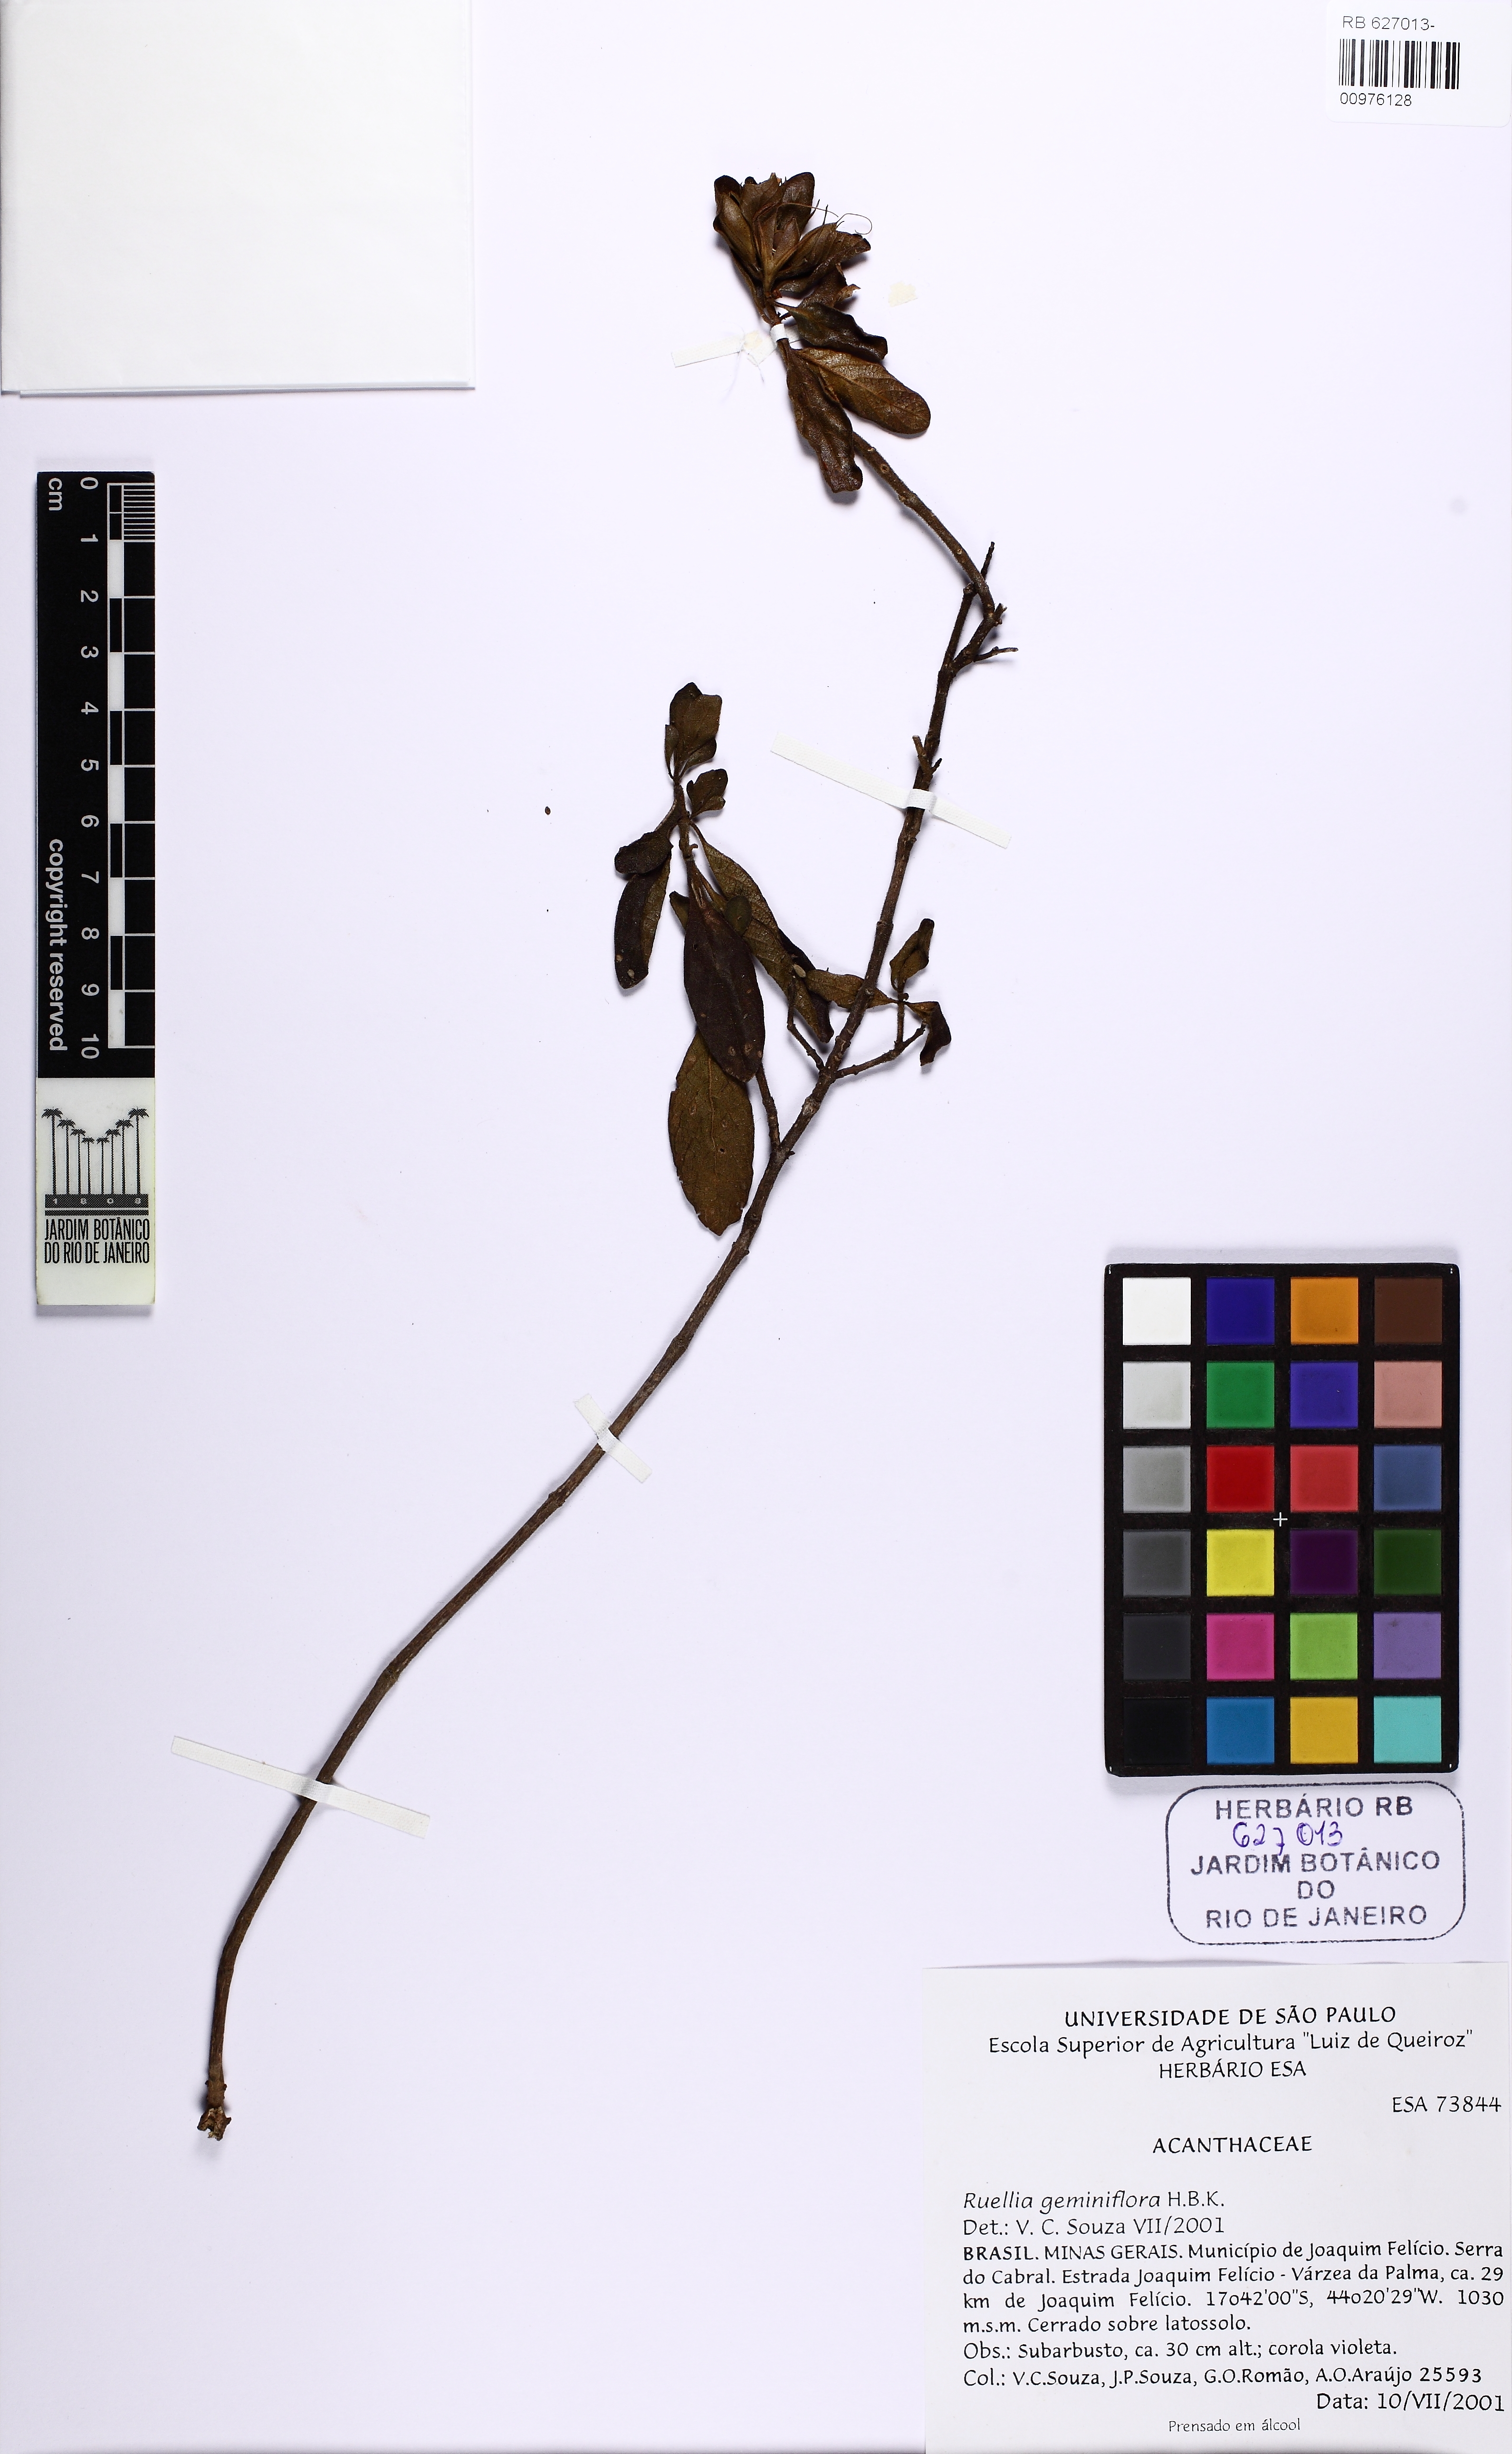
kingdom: Plantae
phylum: Tracheophyta
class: Magnoliopsida
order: Lamiales
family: Acanthaceae
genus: Ruellia
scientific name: Ruellia
